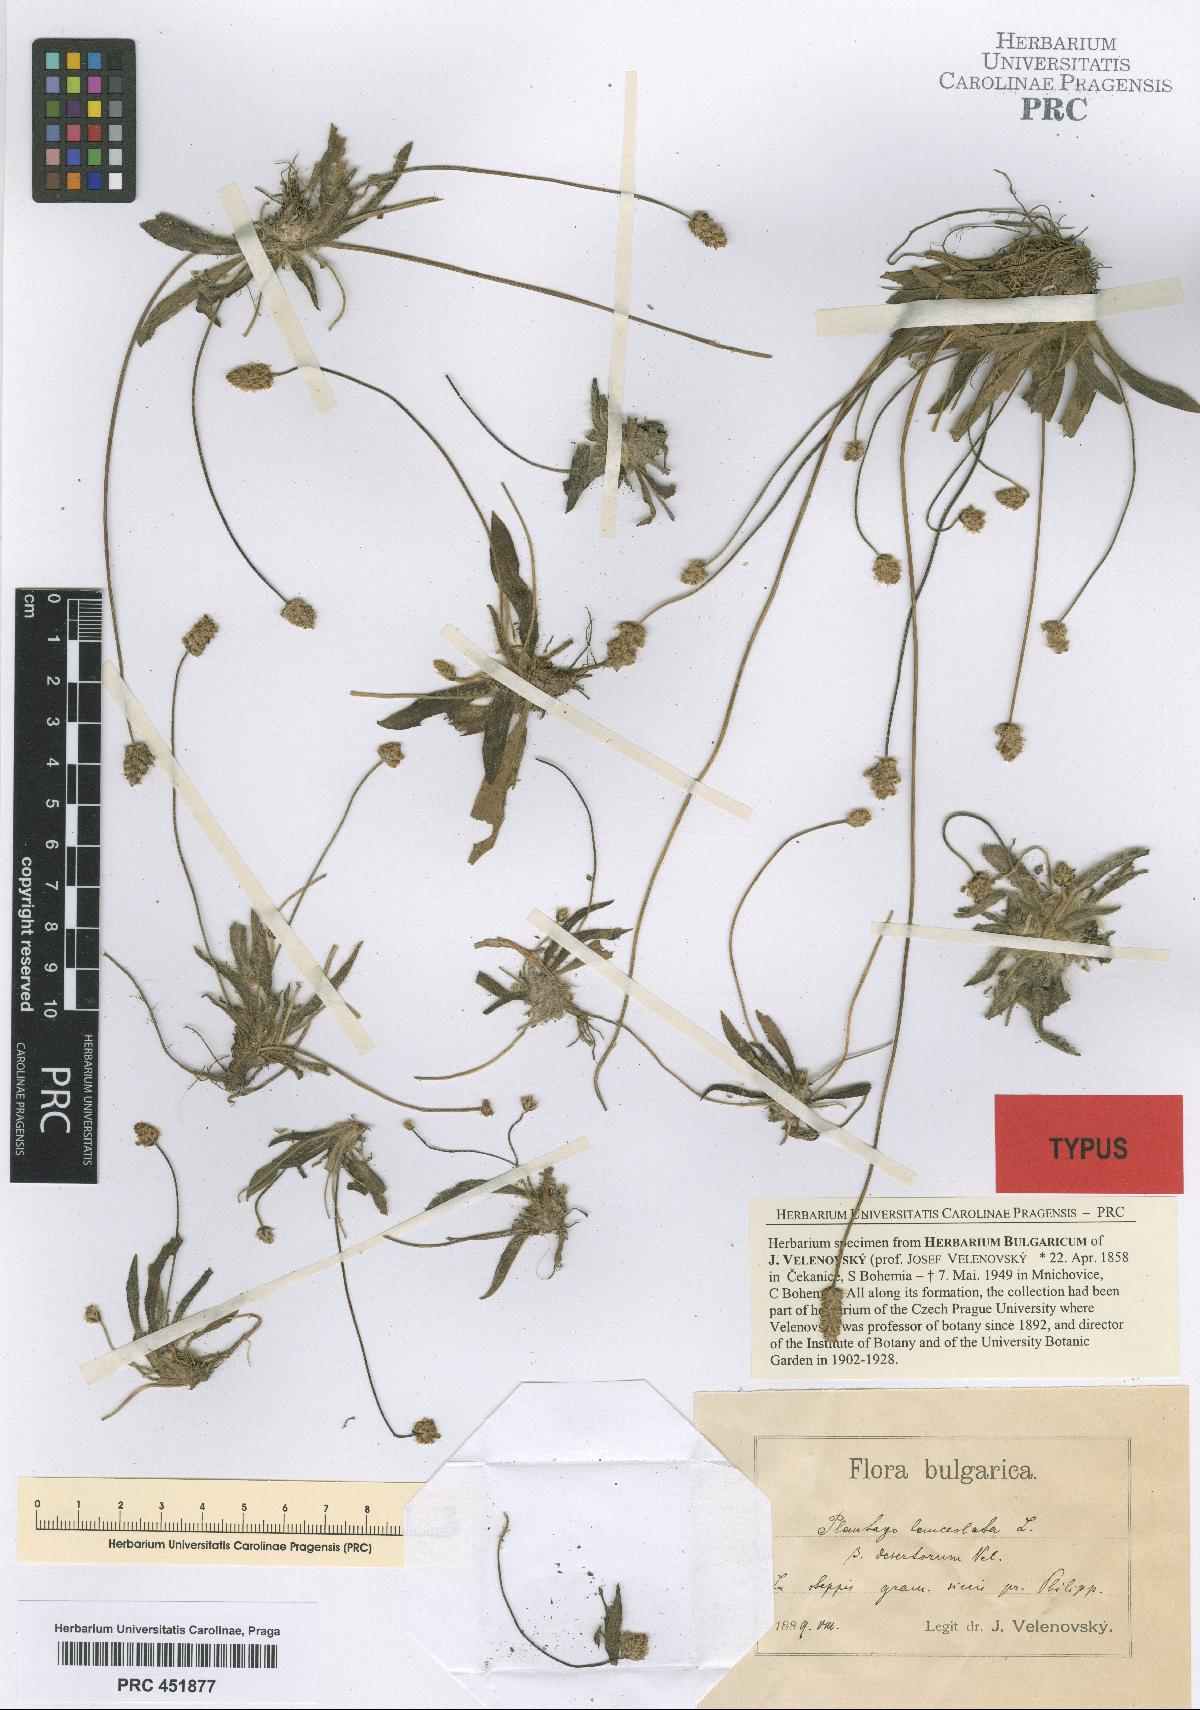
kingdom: Plantae
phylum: Tracheophyta
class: Magnoliopsida
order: Lamiales
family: Plantaginaceae
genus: Plantago
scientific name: Plantago lanceolata
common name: Ribwort plantain
